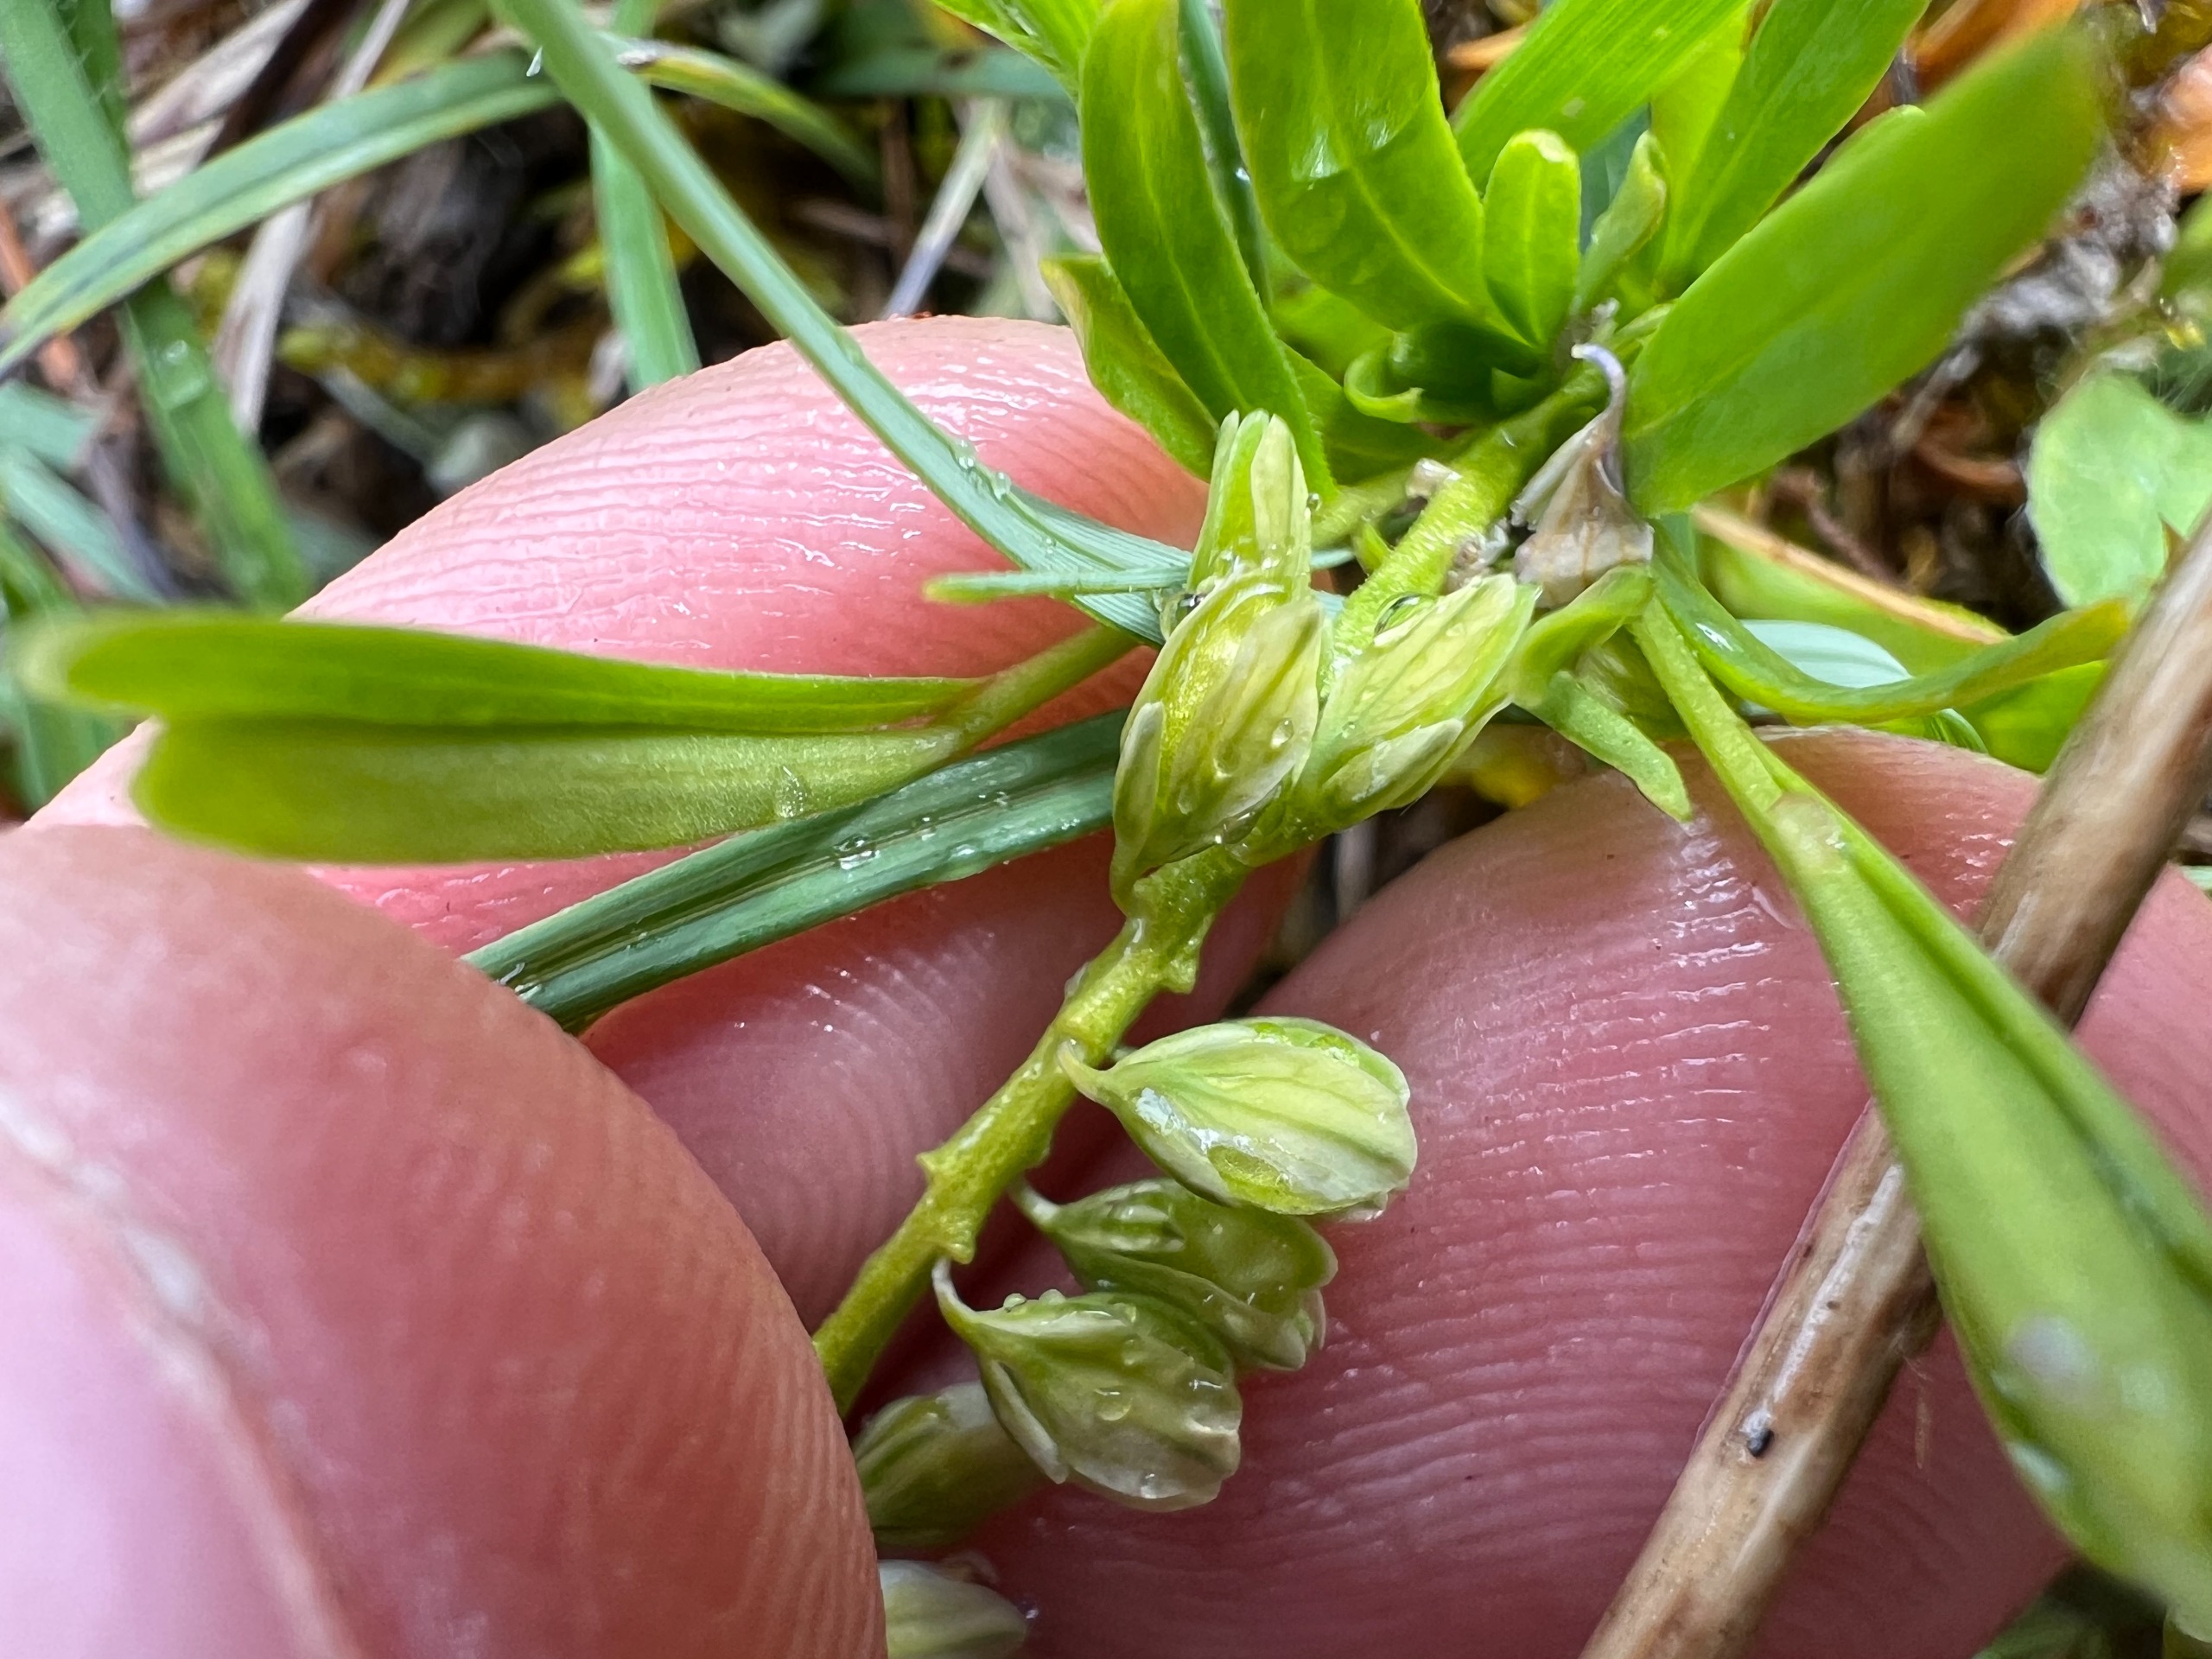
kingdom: Plantae
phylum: Tracheophyta
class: Magnoliopsida
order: Fabales
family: Polygalaceae
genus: Polygala
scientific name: Polygala amarella
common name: Bitter mælkeurt
